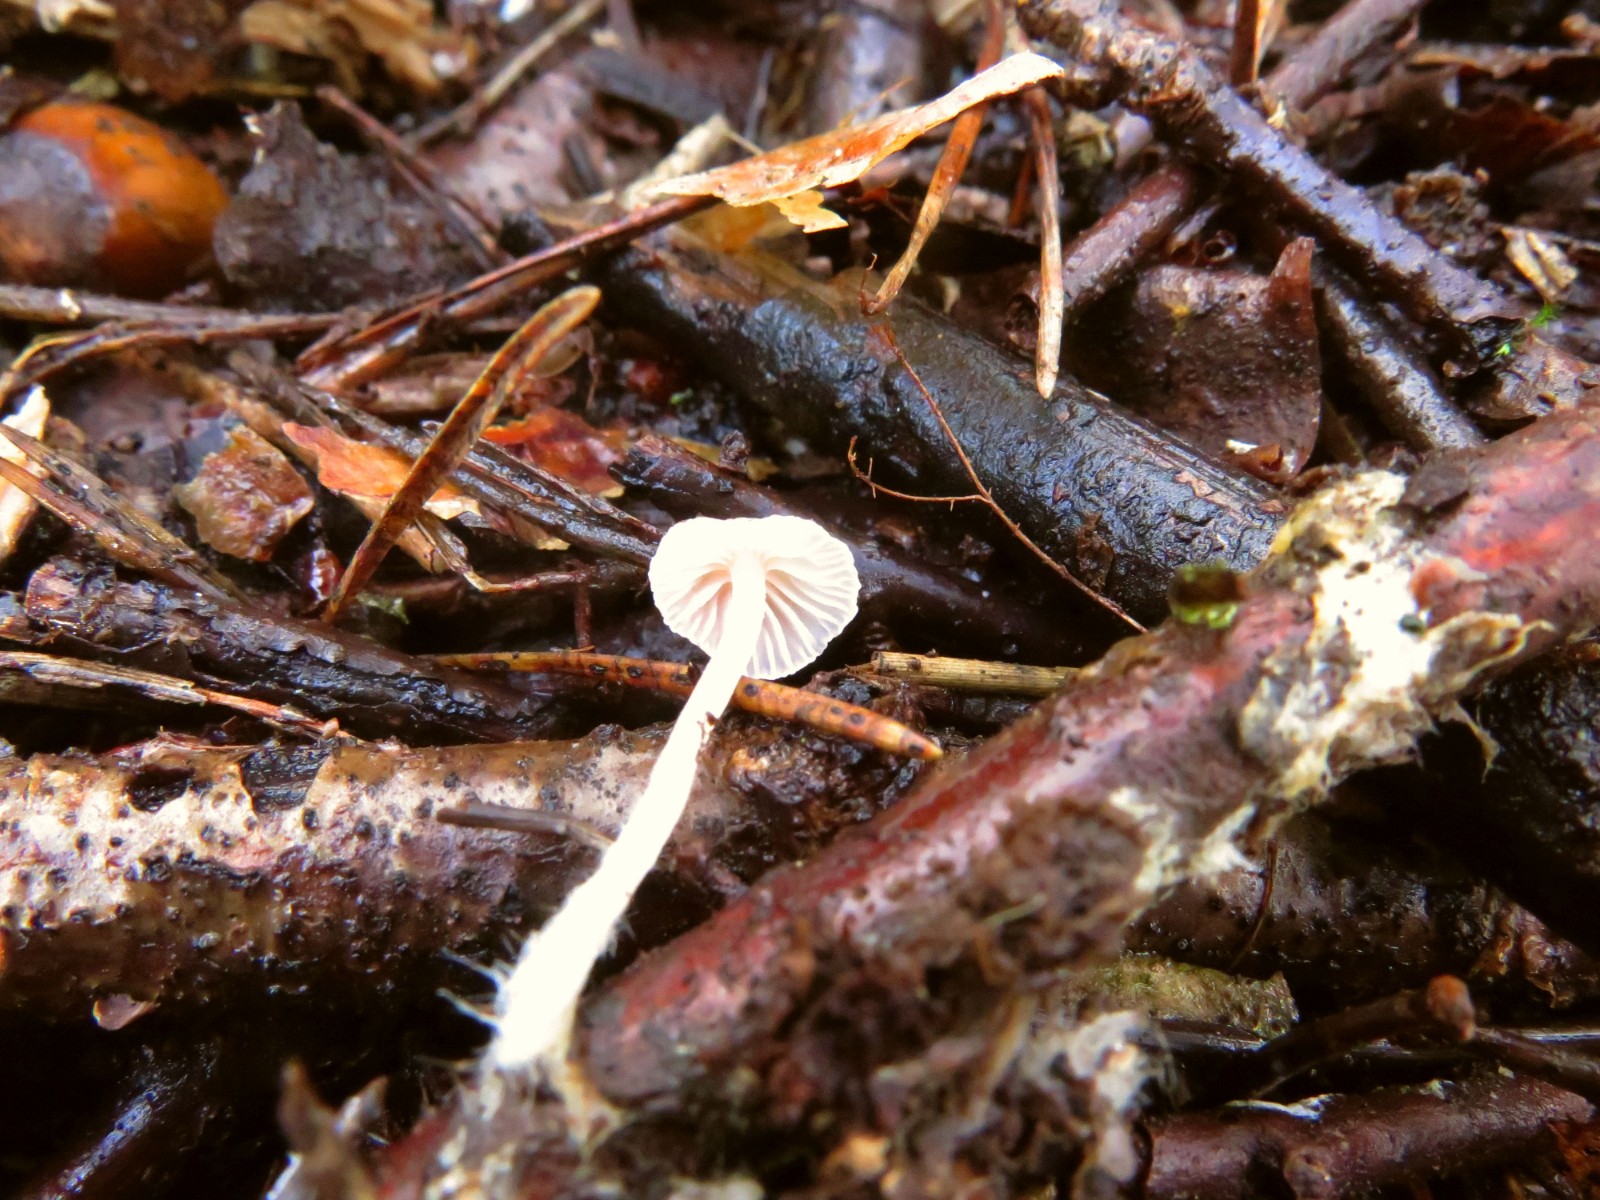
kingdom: Fungi
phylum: Basidiomycota
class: Agaricomycetes
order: Agaricales
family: Mycenaceae
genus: Atheniella
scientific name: Atheniella
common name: huesvamp
